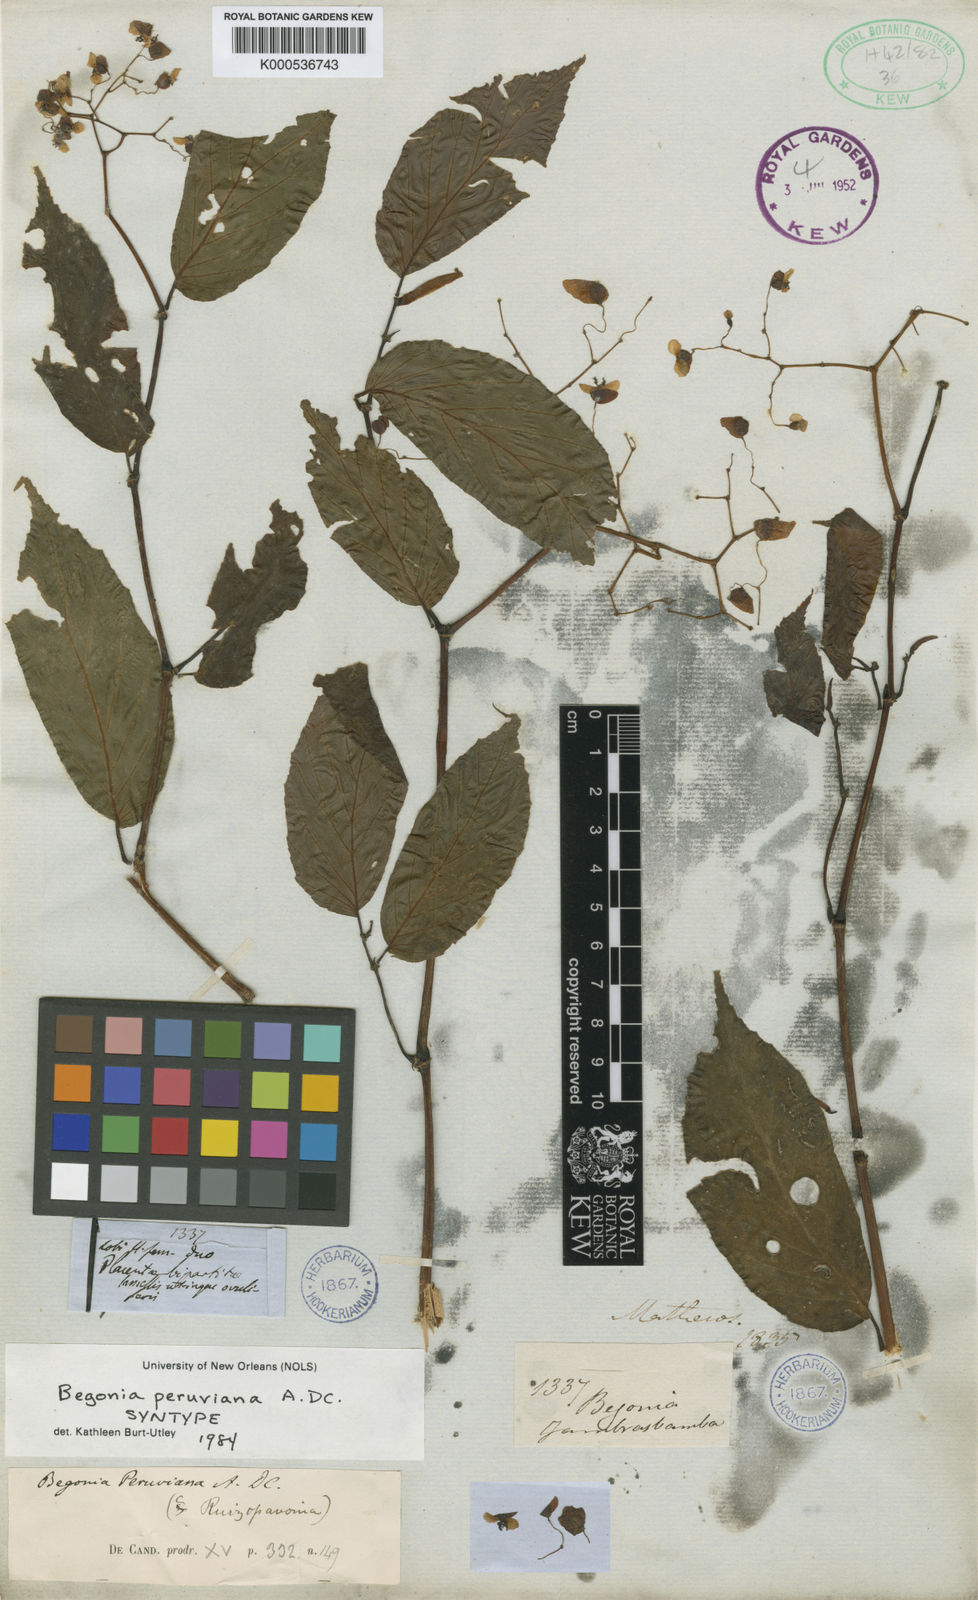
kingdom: Plantae
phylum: Tracheophyta
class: Magnoliopsida
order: Cucurbitales
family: Begoniaceae
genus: Begonia
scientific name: Begonia peruviana
